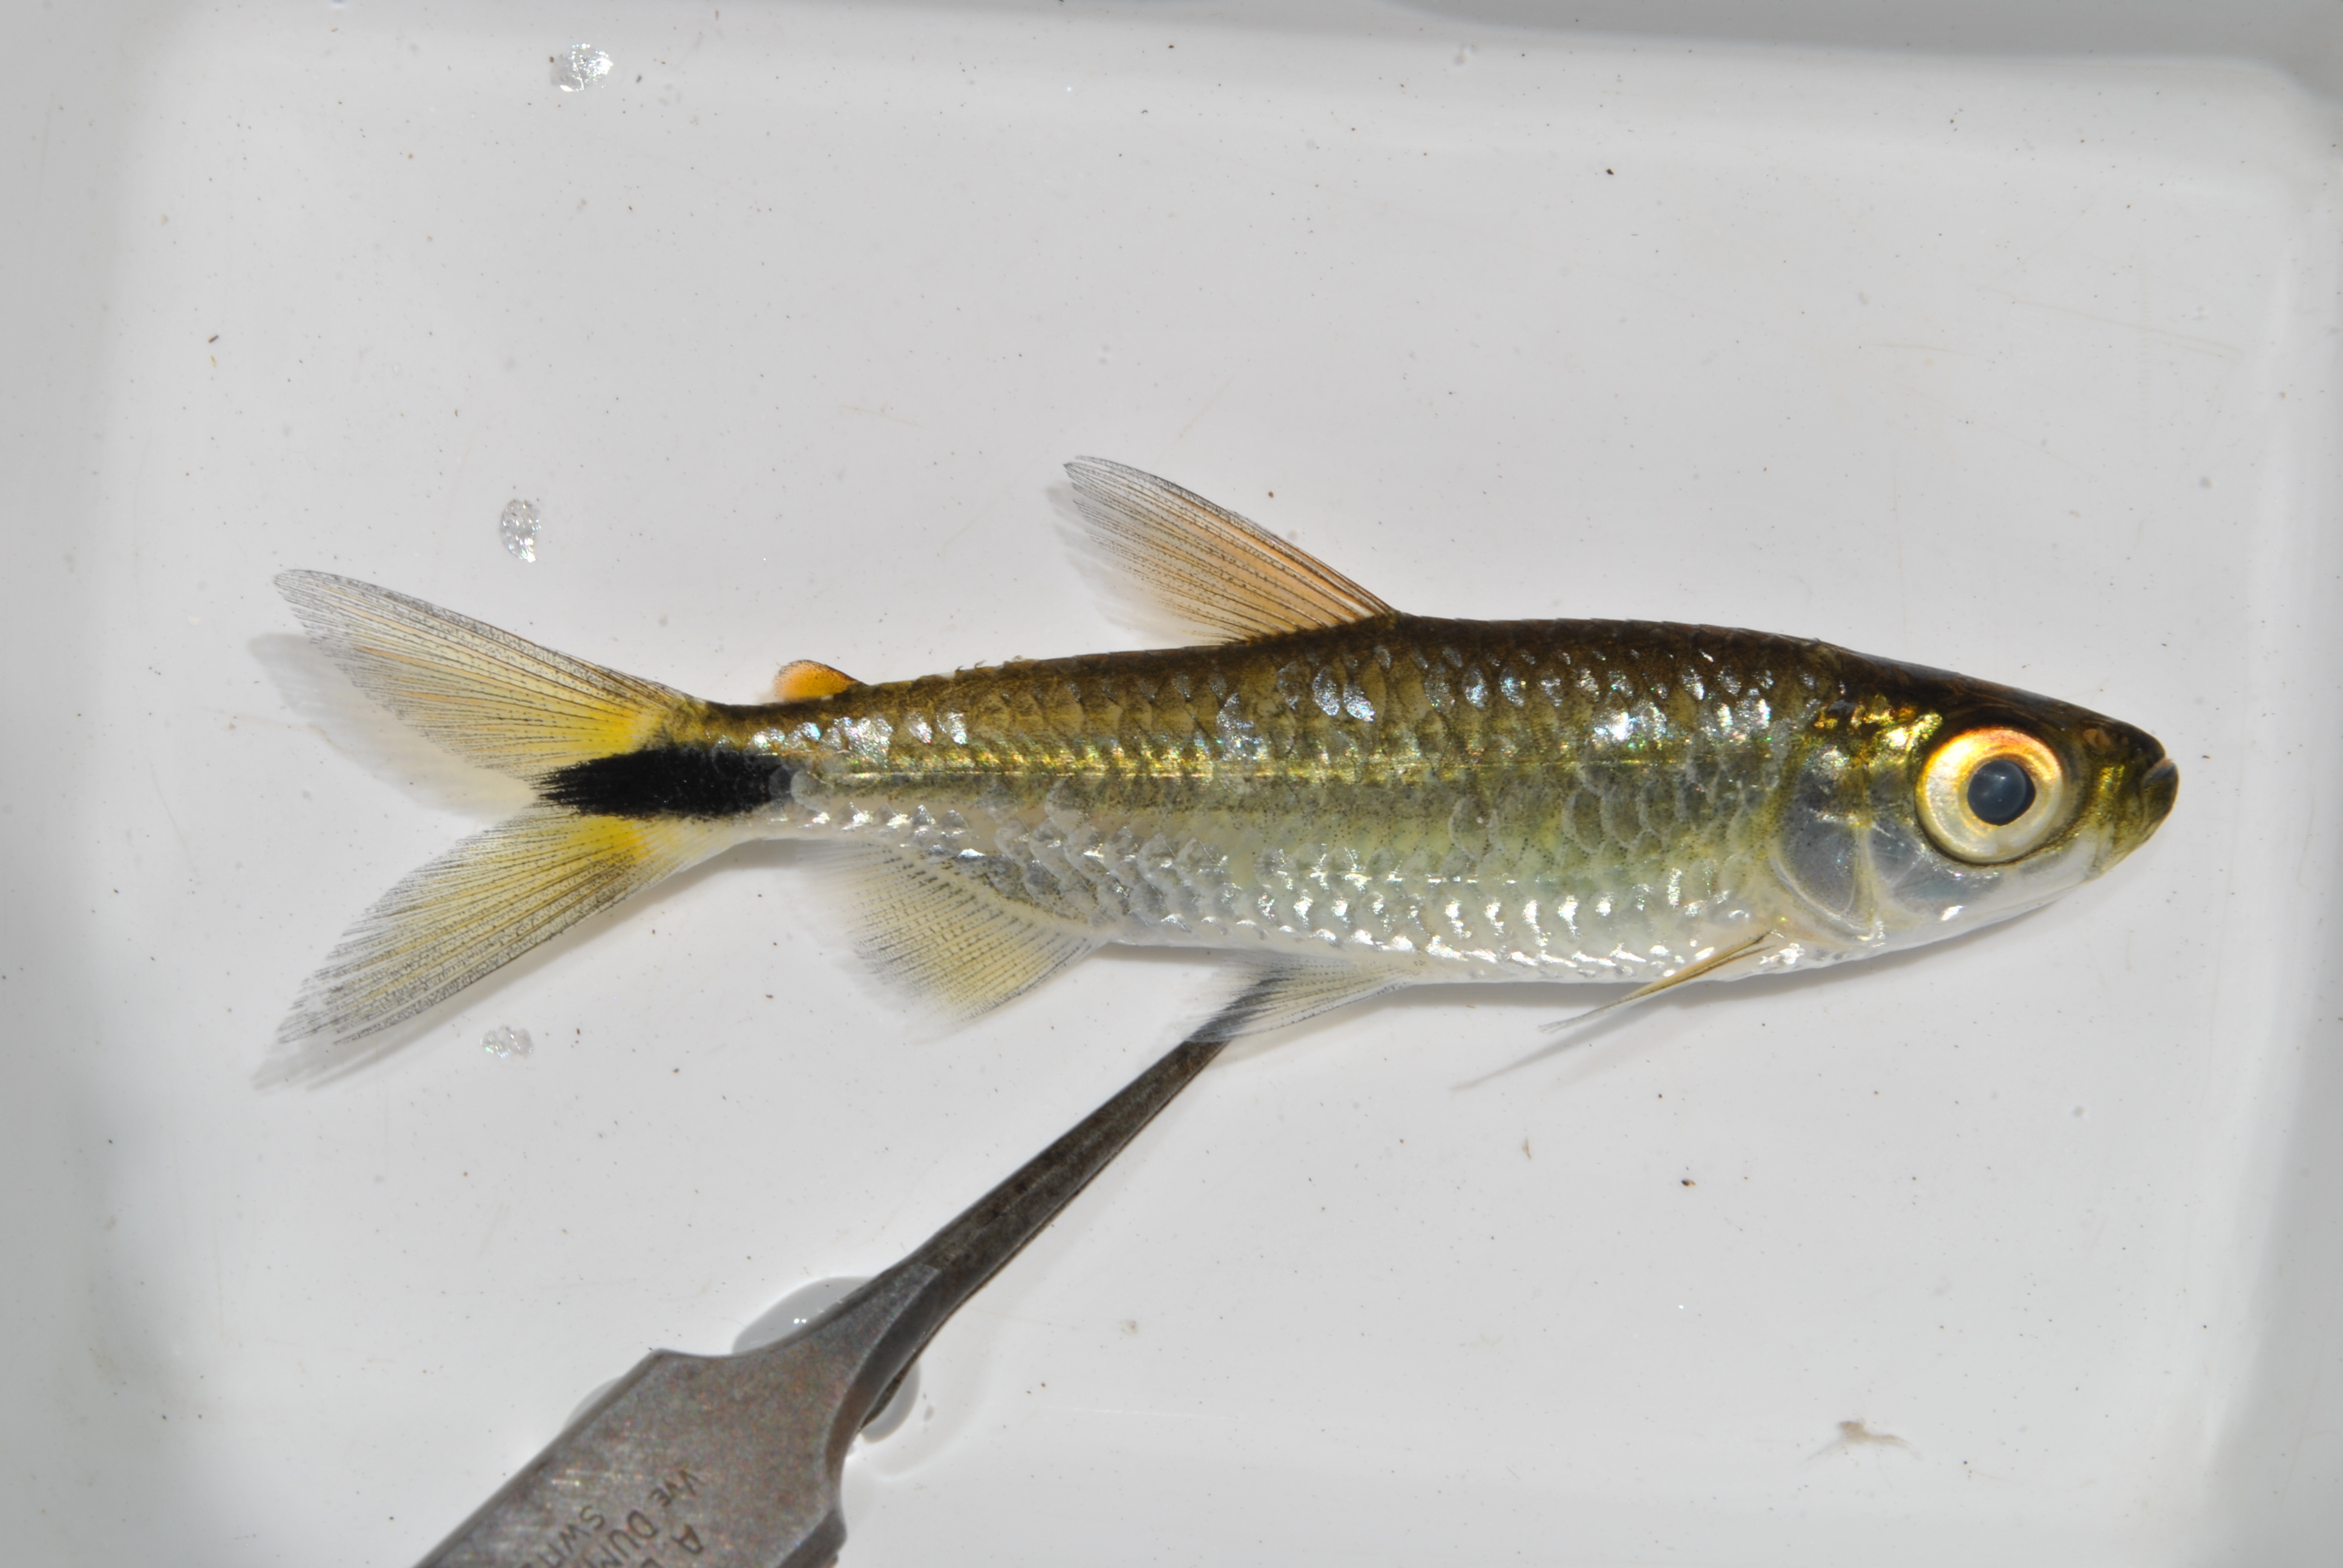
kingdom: Animalia
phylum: Chordata
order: Characiformes
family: Alestidae
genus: Brycinus
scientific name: Brycinus lateralis
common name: Striped robber
